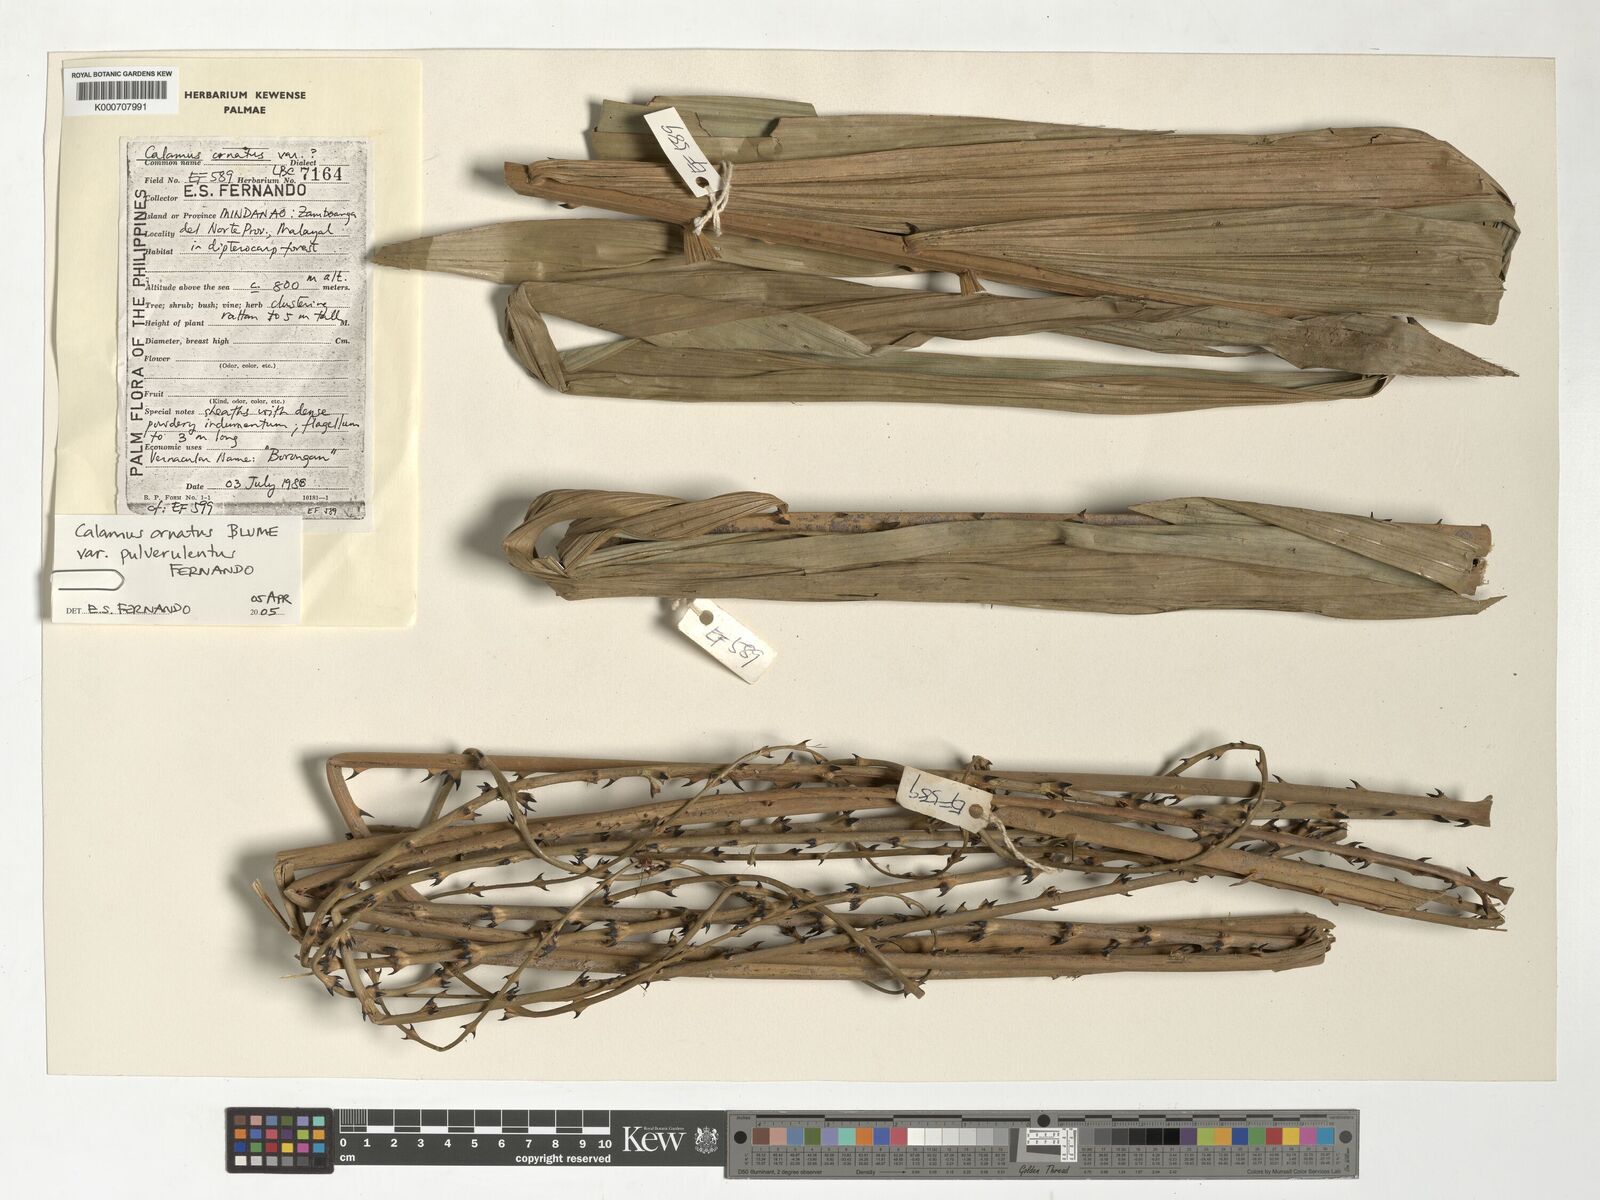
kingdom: Plantae
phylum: Tracheophyta
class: Liliopsida
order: Arecales
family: Arecaceae
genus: Calamus
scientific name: Calamus ornatus
